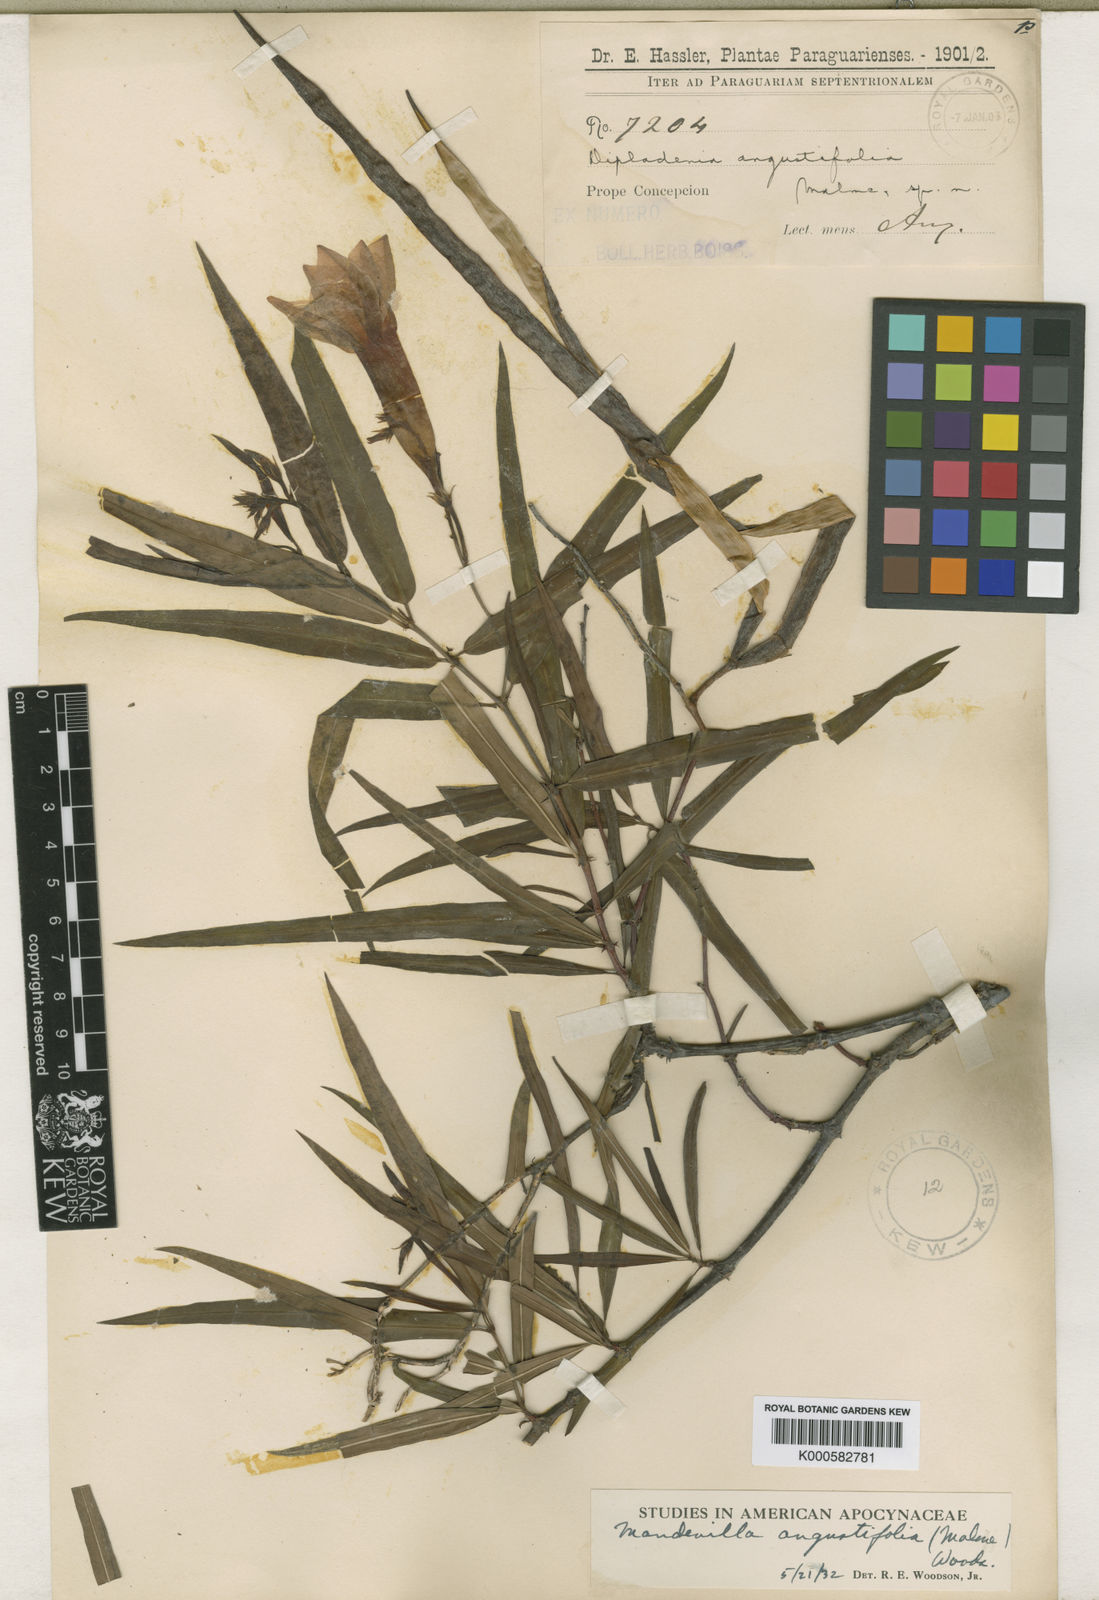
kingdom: Plantae
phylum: Tracheophyta
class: Magnoliopsida
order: Gentianales
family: Apocynaceae
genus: Mandevilla
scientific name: Mandevilla angustifolia
